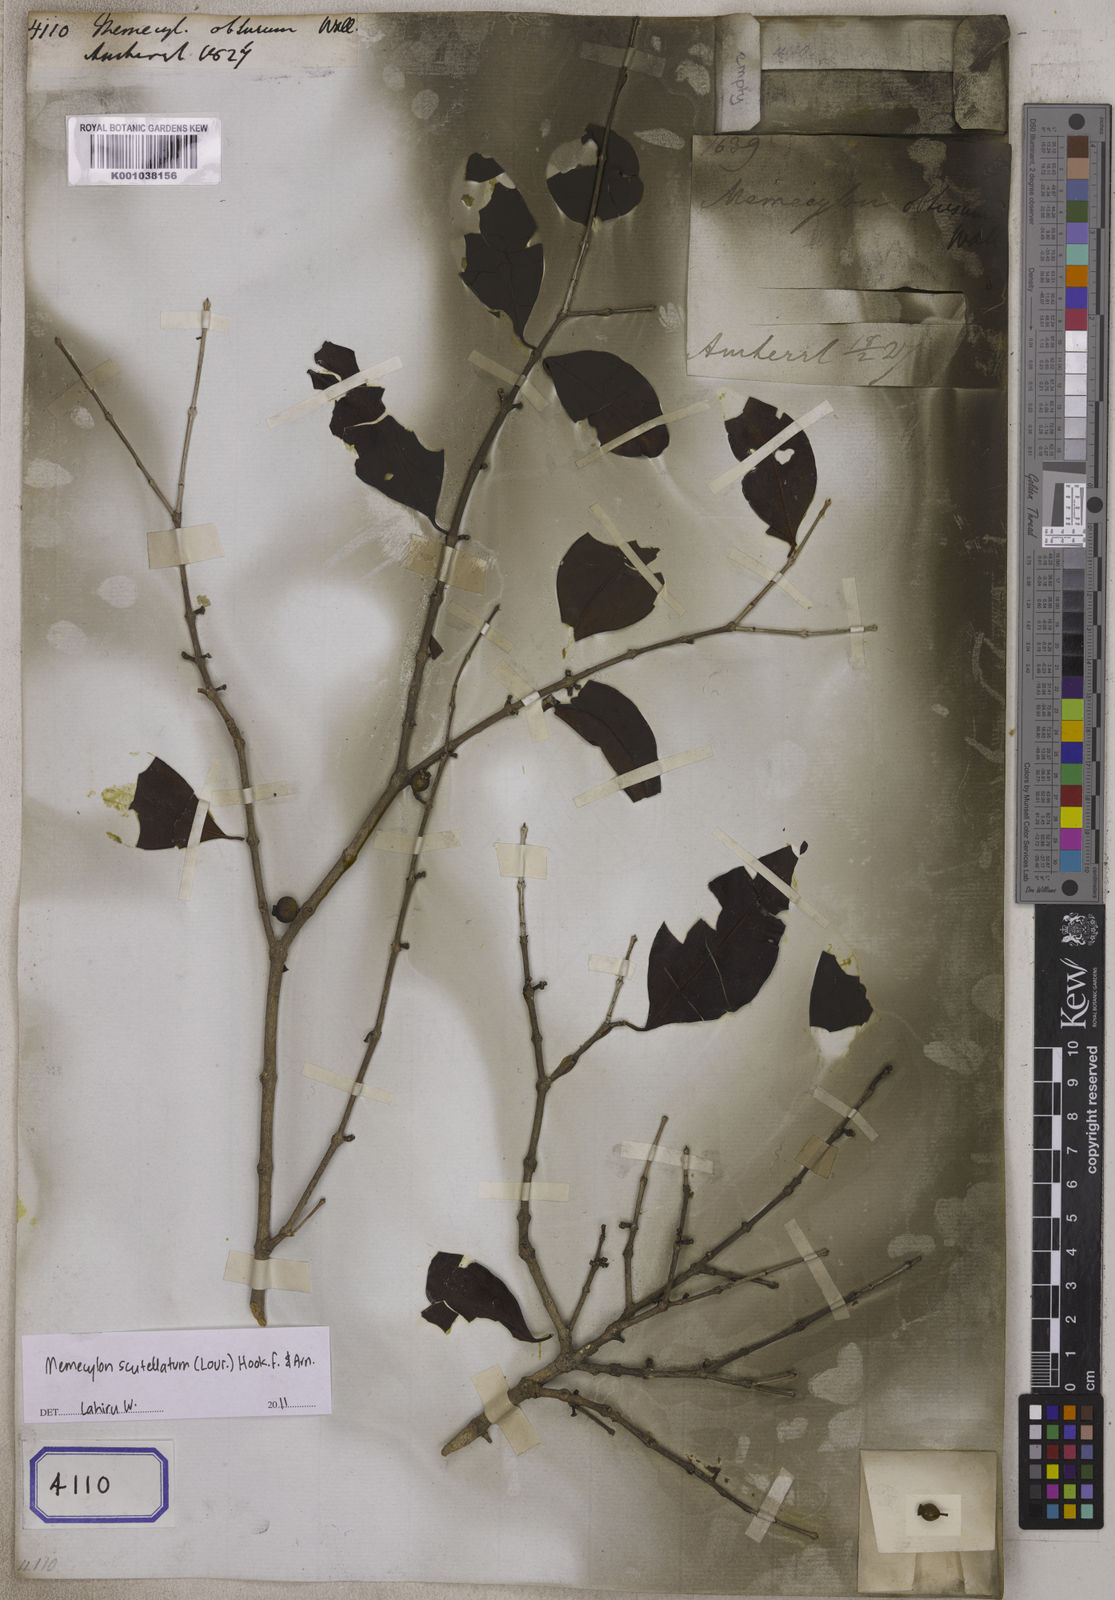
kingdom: Plantae
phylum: Tracheophyta
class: Magnoliopsida
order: Myrtales
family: Melastomataceae
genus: Memecylon
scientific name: Memecylon scutellatum
